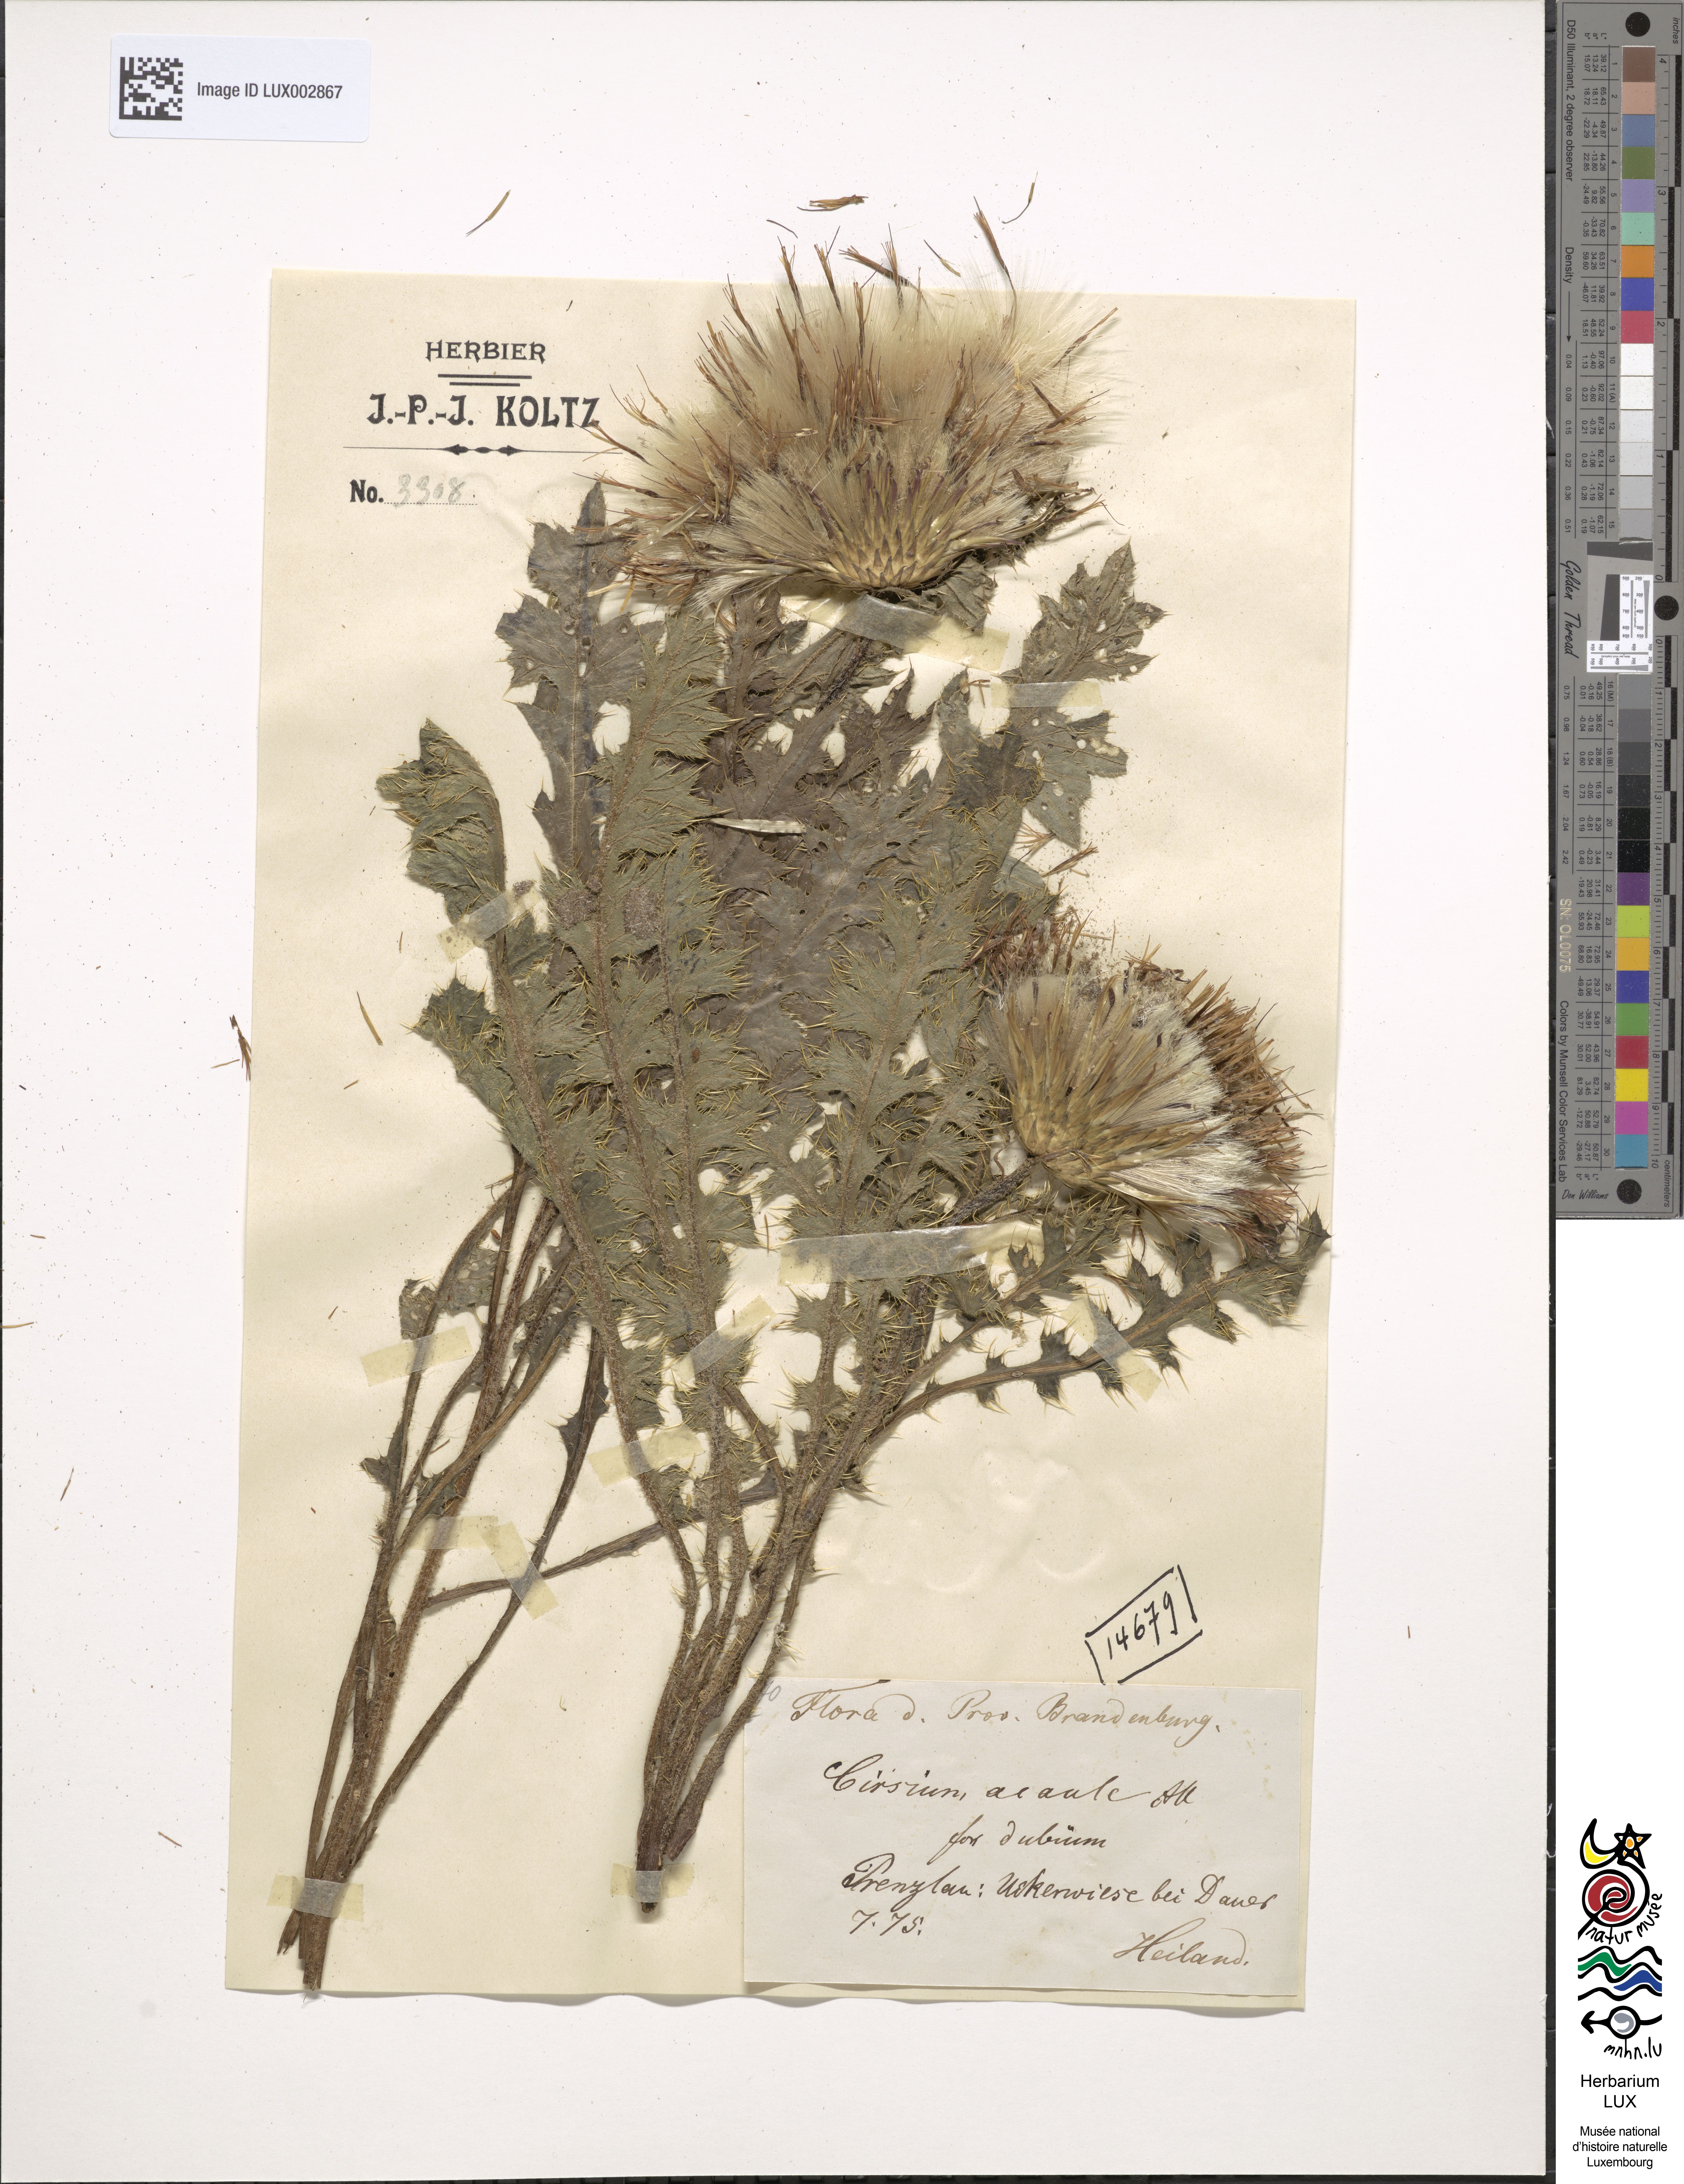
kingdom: Plantae
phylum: Tracheophyta
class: Magnoliopsida
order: Asterales
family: Asteraceae
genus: Cirsium
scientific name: Cirsium acaule
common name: Dwarf thistle
